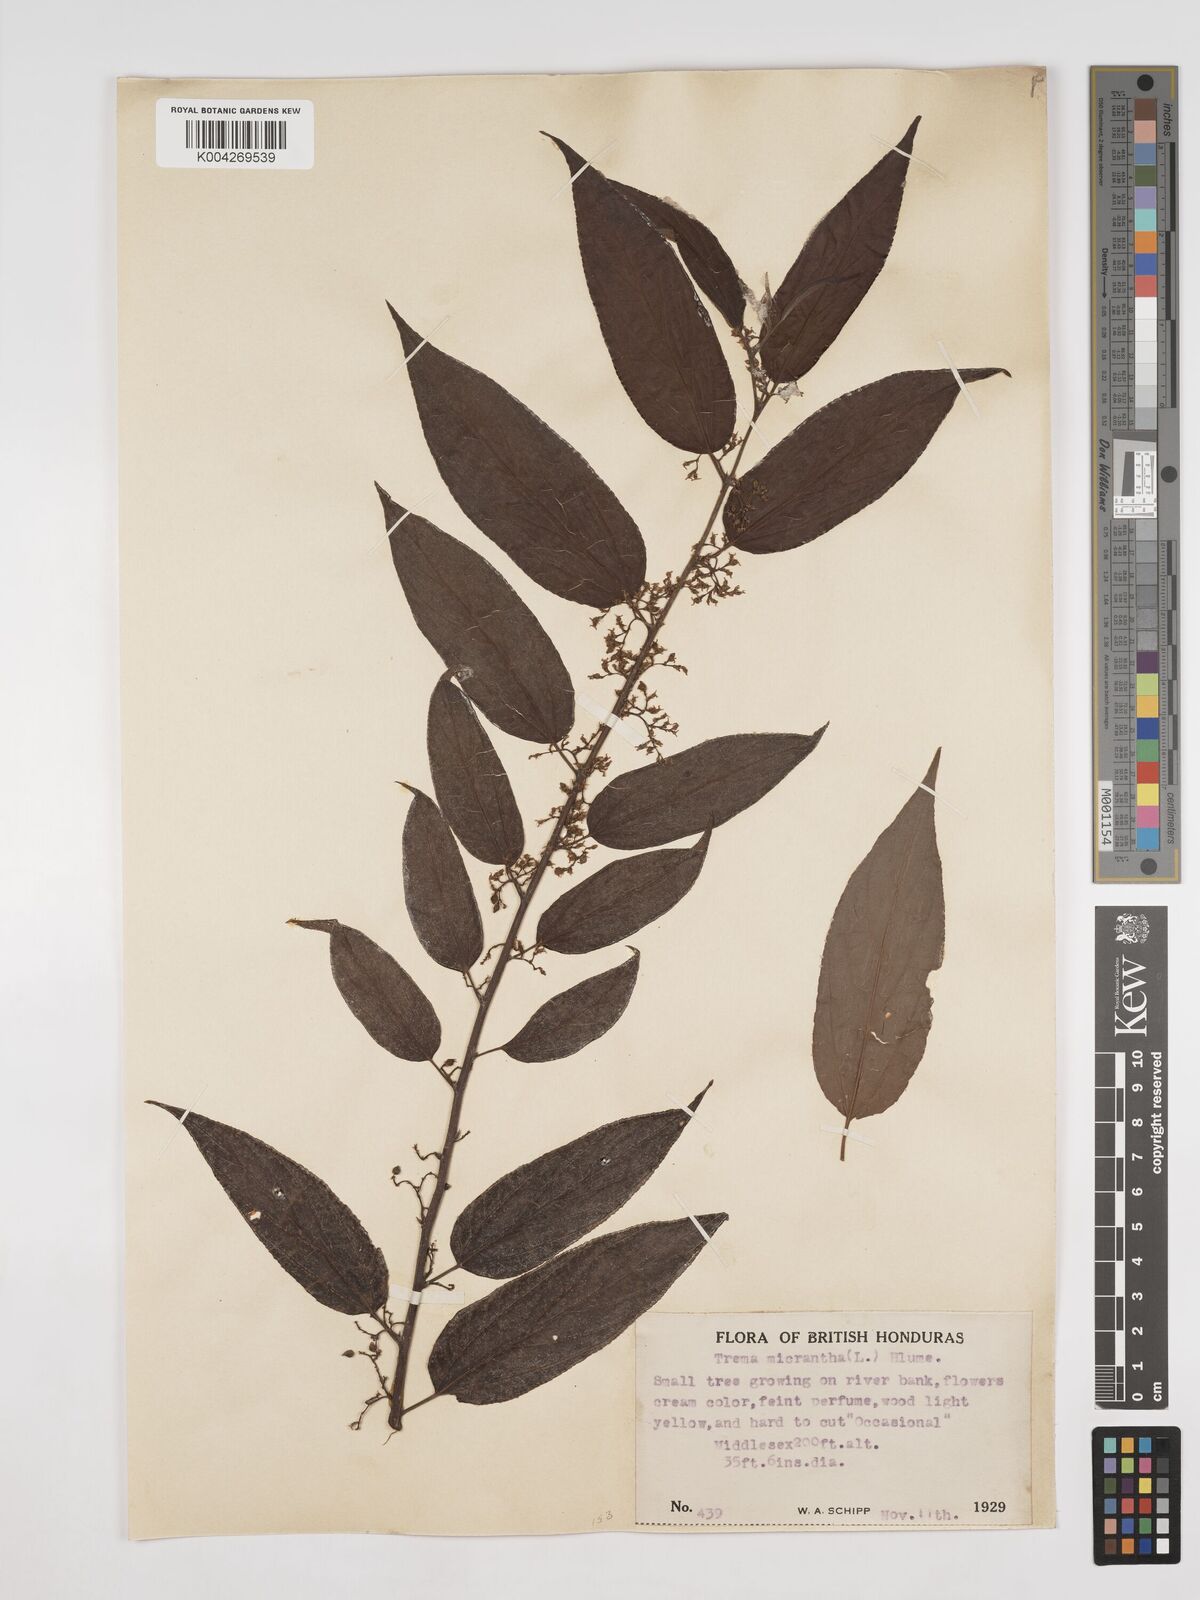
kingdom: Plantae
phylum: Tracheophyta
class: Magnoliopsida
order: Rosales
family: Cannabaceae
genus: Trema
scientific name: Trema micranthum
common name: Jamaican nettletree
